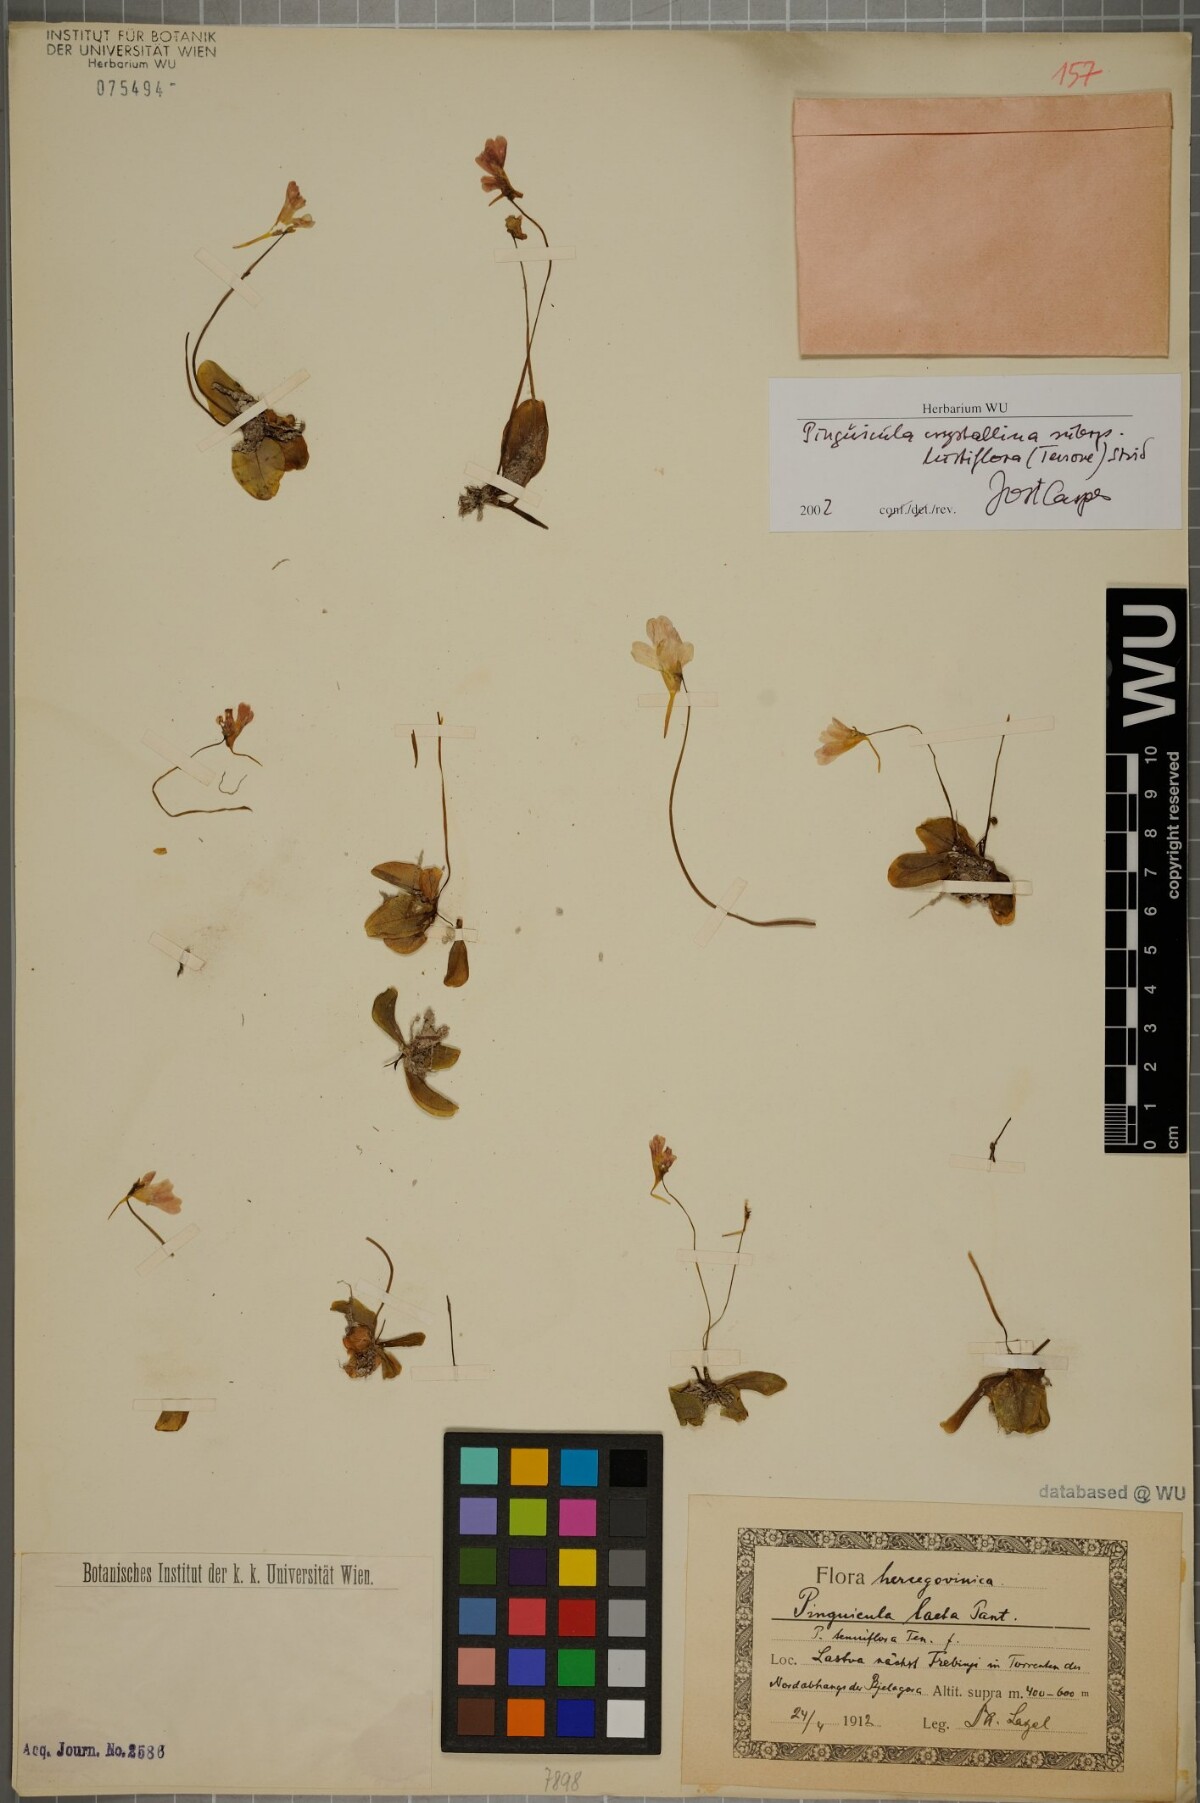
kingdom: Plantae
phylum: Tracheophyta
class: Magnoliopsida
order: Lamiales
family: Lentibulariaceae
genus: Pinguicula
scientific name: Pinguicula crystallina
